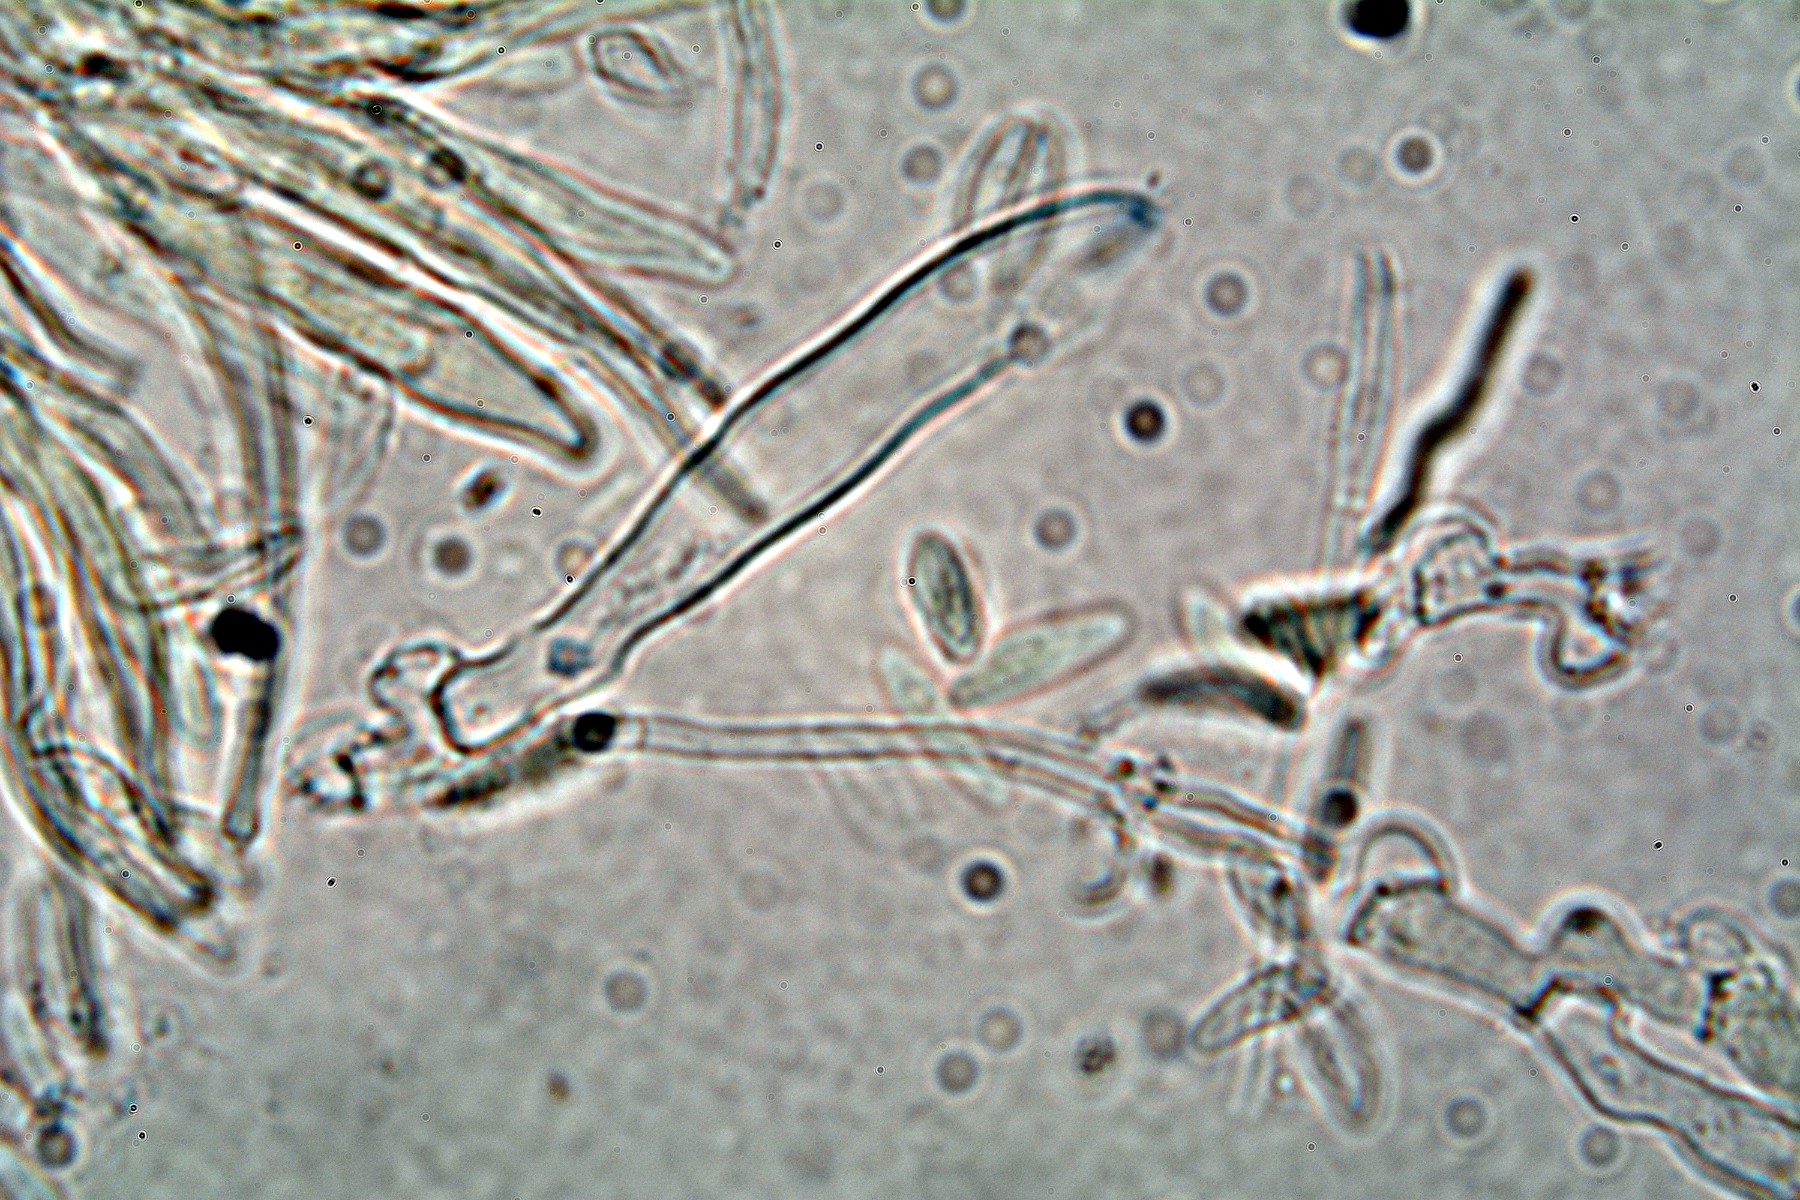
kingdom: Fungi
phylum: Ascomycota
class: Leotiomycetes
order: Helotiales
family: Hyaloscyphaceae
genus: Eupezizella
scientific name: Eupezizella aureliella
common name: almindelig klarskive
